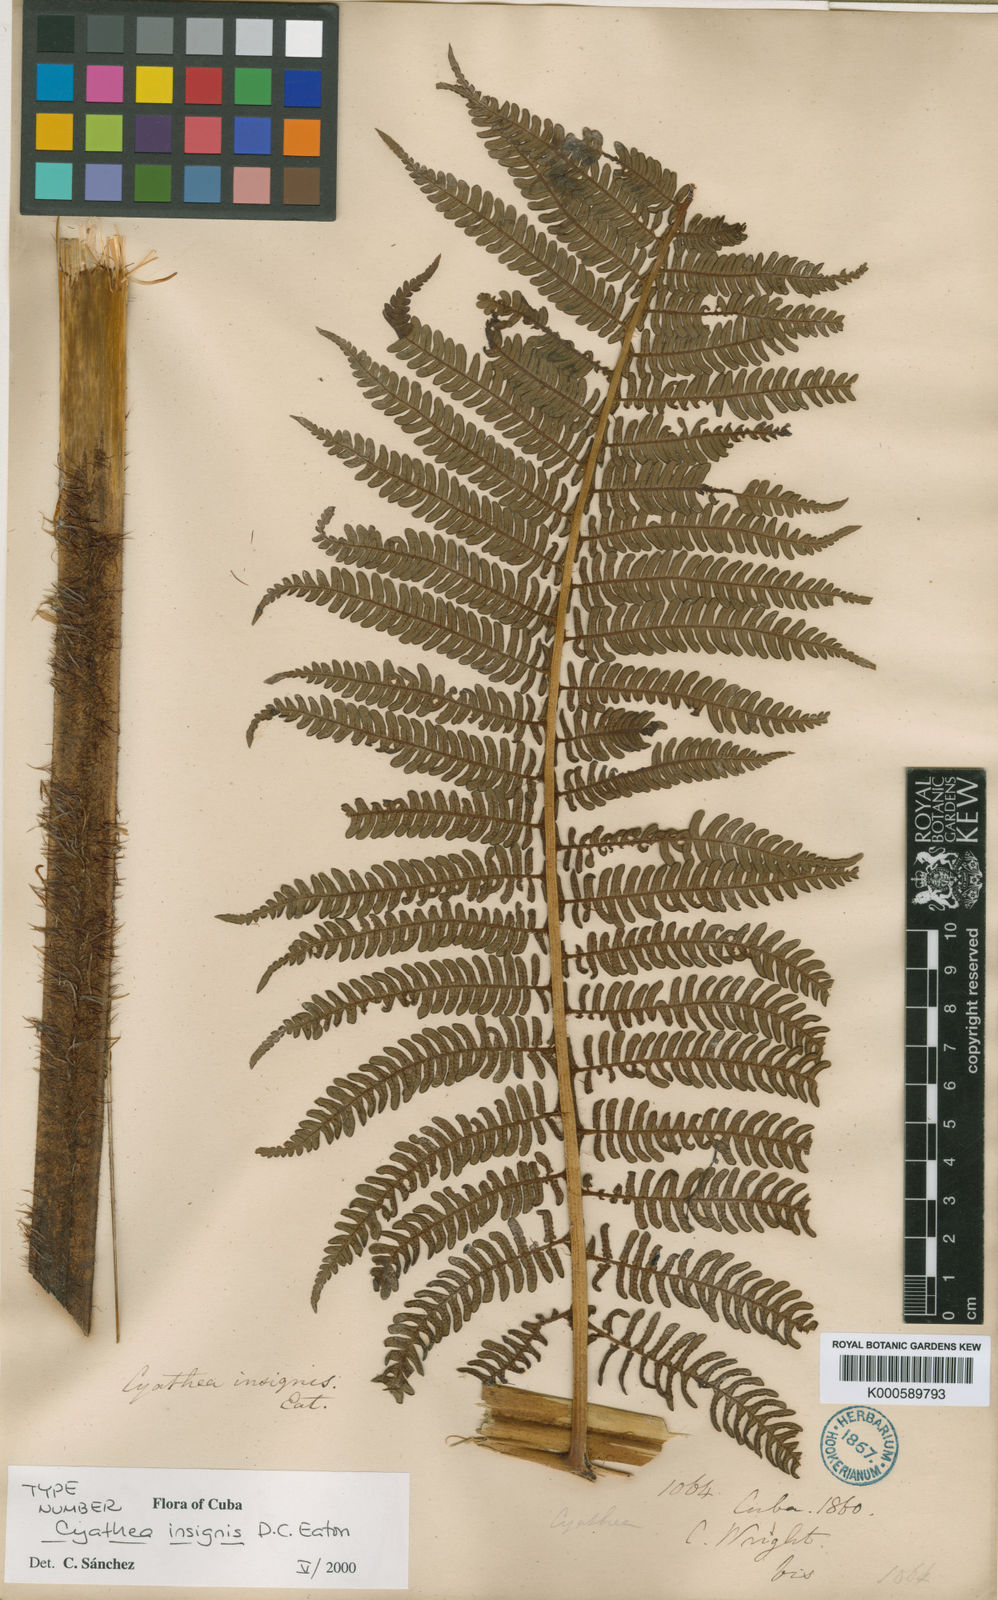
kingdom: Plantae
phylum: Tracheophyta
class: Polypodiopsida
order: Cyatheales
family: Cyatheaceae
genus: Sphaeropteris
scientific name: Sphaeropteris insignis
